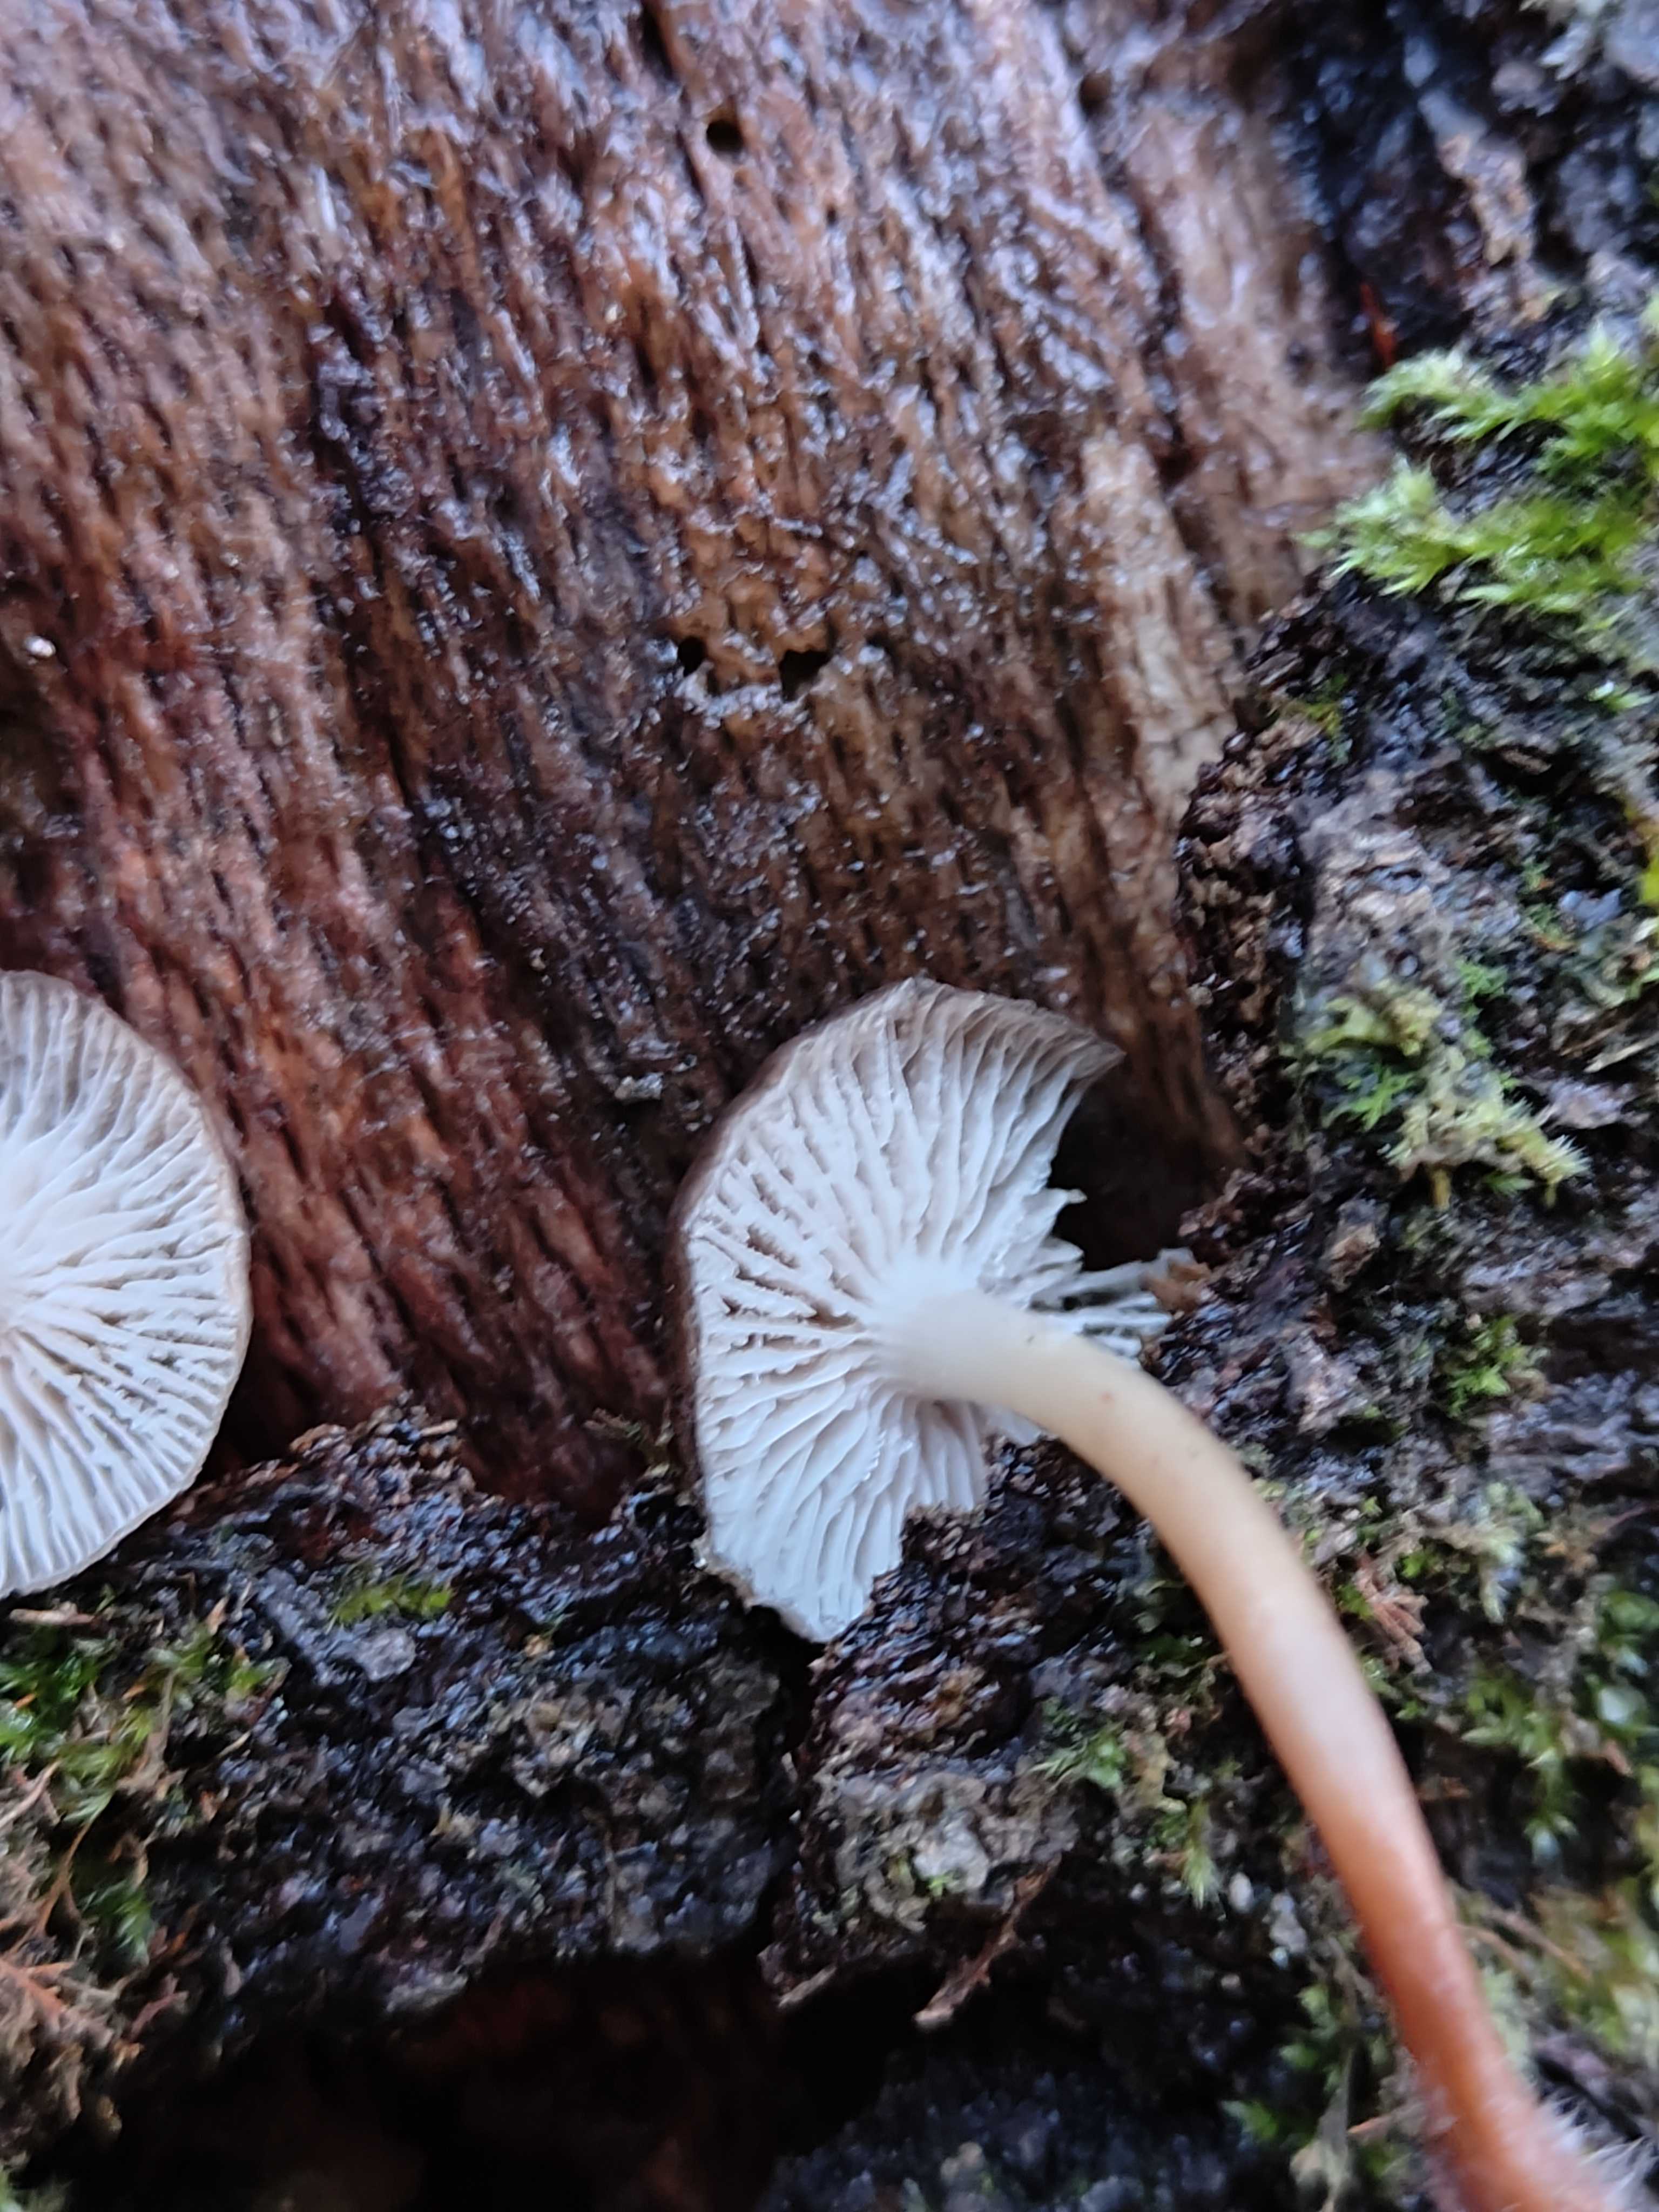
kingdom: Fungi
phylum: Basidiomycota
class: Agaricomycetes
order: Agaricales
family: Mycenaceae
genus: Mycena
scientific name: Mycena tintinnabulum
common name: vinter-huesvamp
